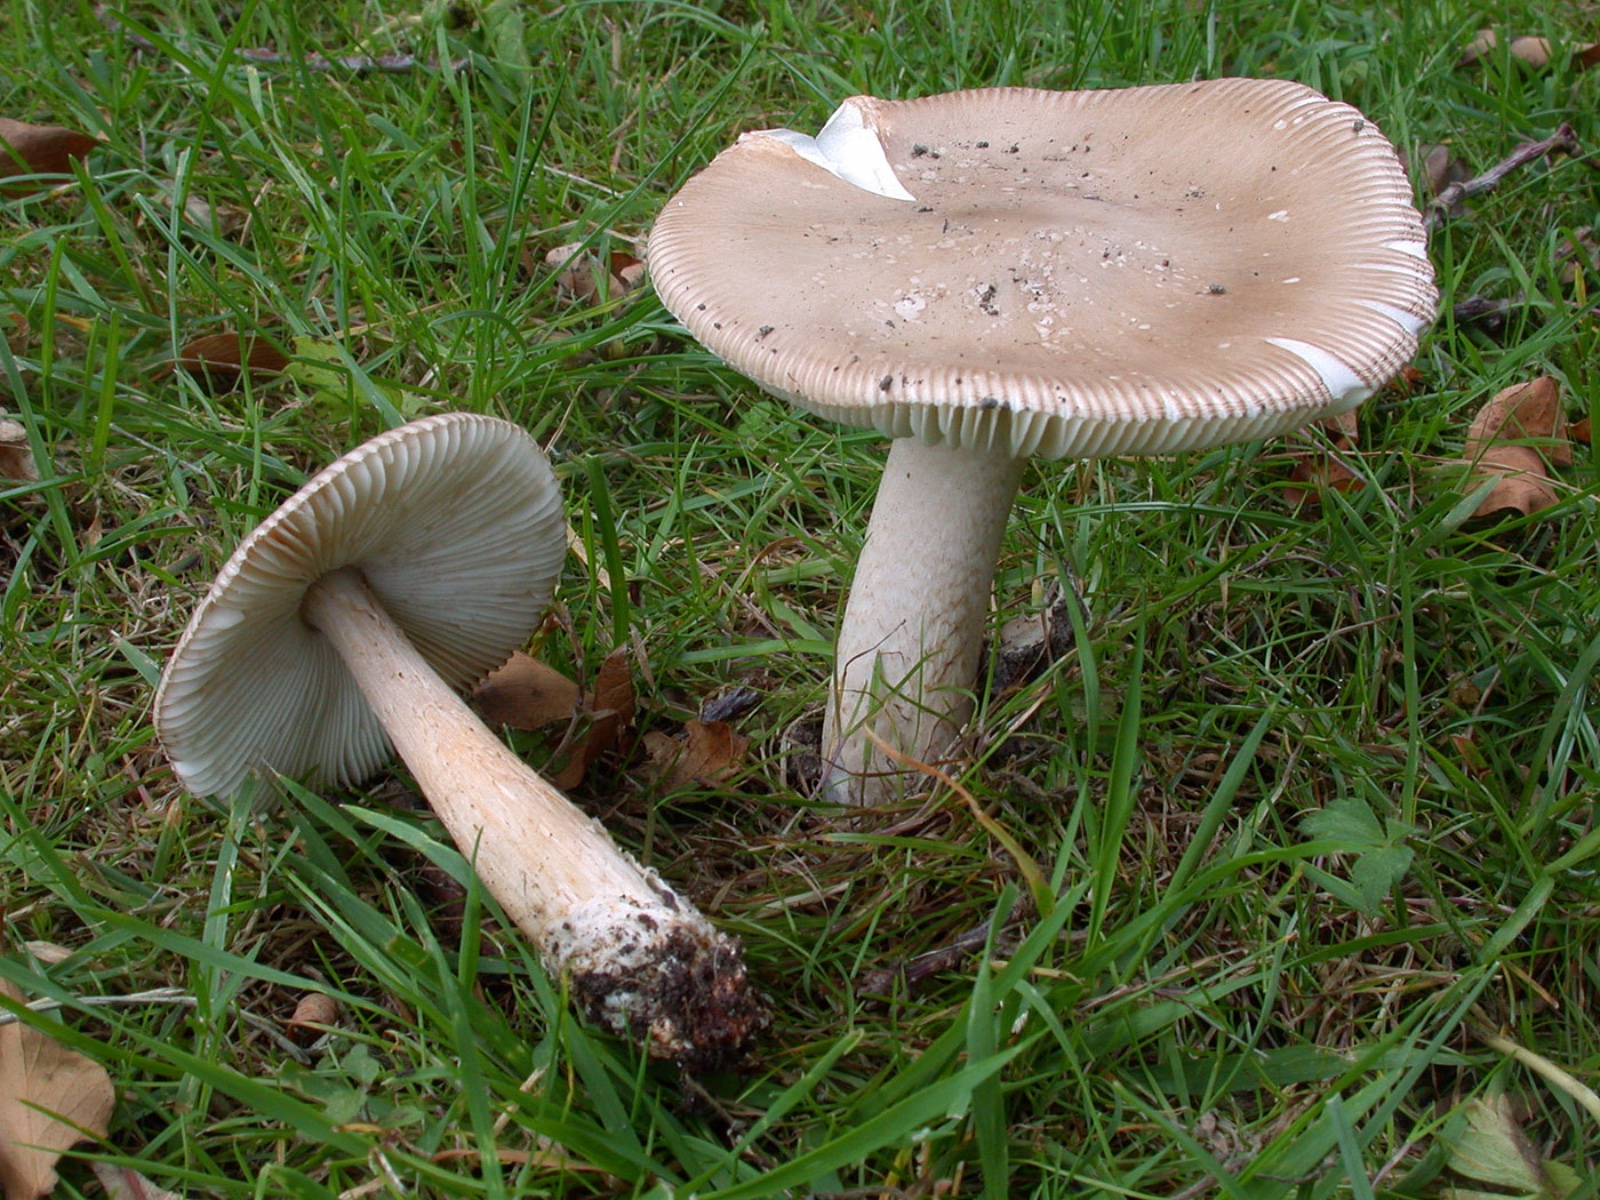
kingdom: Fungi
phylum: Basidiomycota
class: Agaricomycetes
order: Agaricales
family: Amanitaceae
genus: Amanita
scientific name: Amanita lividopallescens
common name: afblegende kam-fluesvamp
